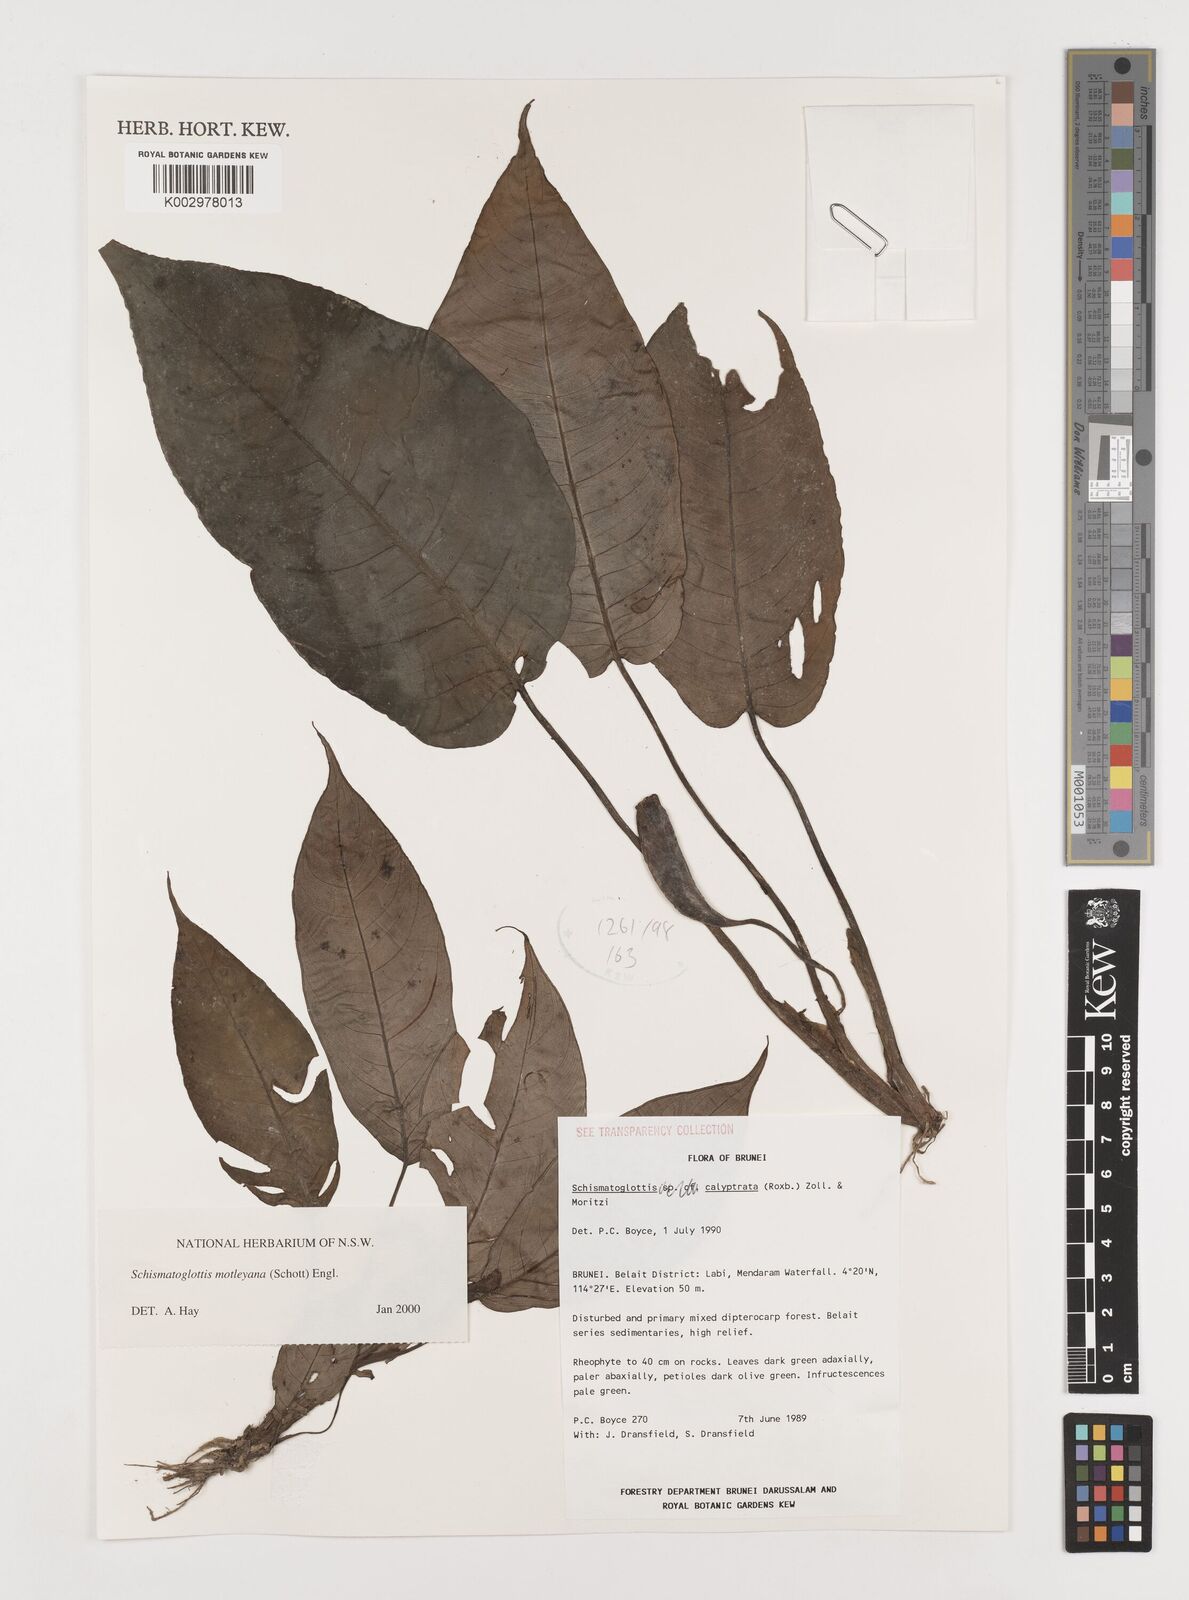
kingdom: Plantae
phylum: Tracheophyta
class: Liliopsida
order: Alismatales
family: Araceae
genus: Schismatoglottis
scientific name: Schismatoglottis motleyana
